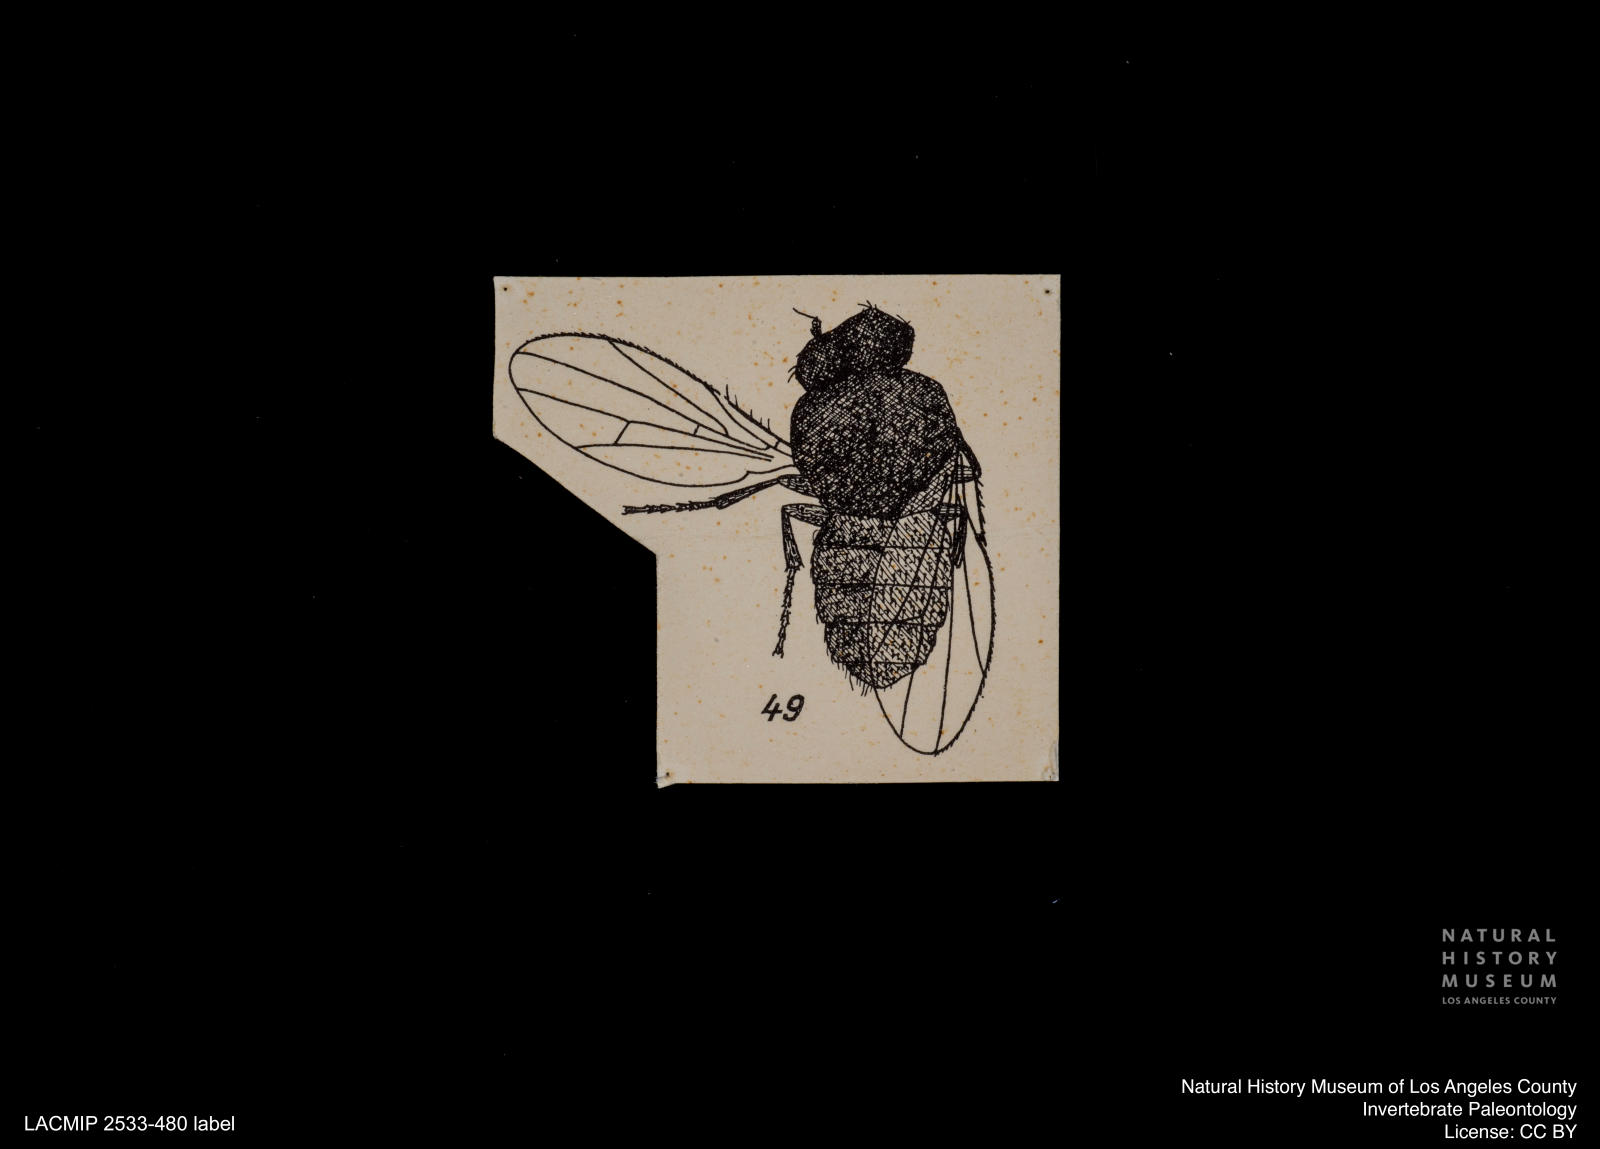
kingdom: Animalia
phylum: Arthropoda
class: Insecta
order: Diptera
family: Chloropidae
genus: Oscinella
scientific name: Oscinella dormescens
